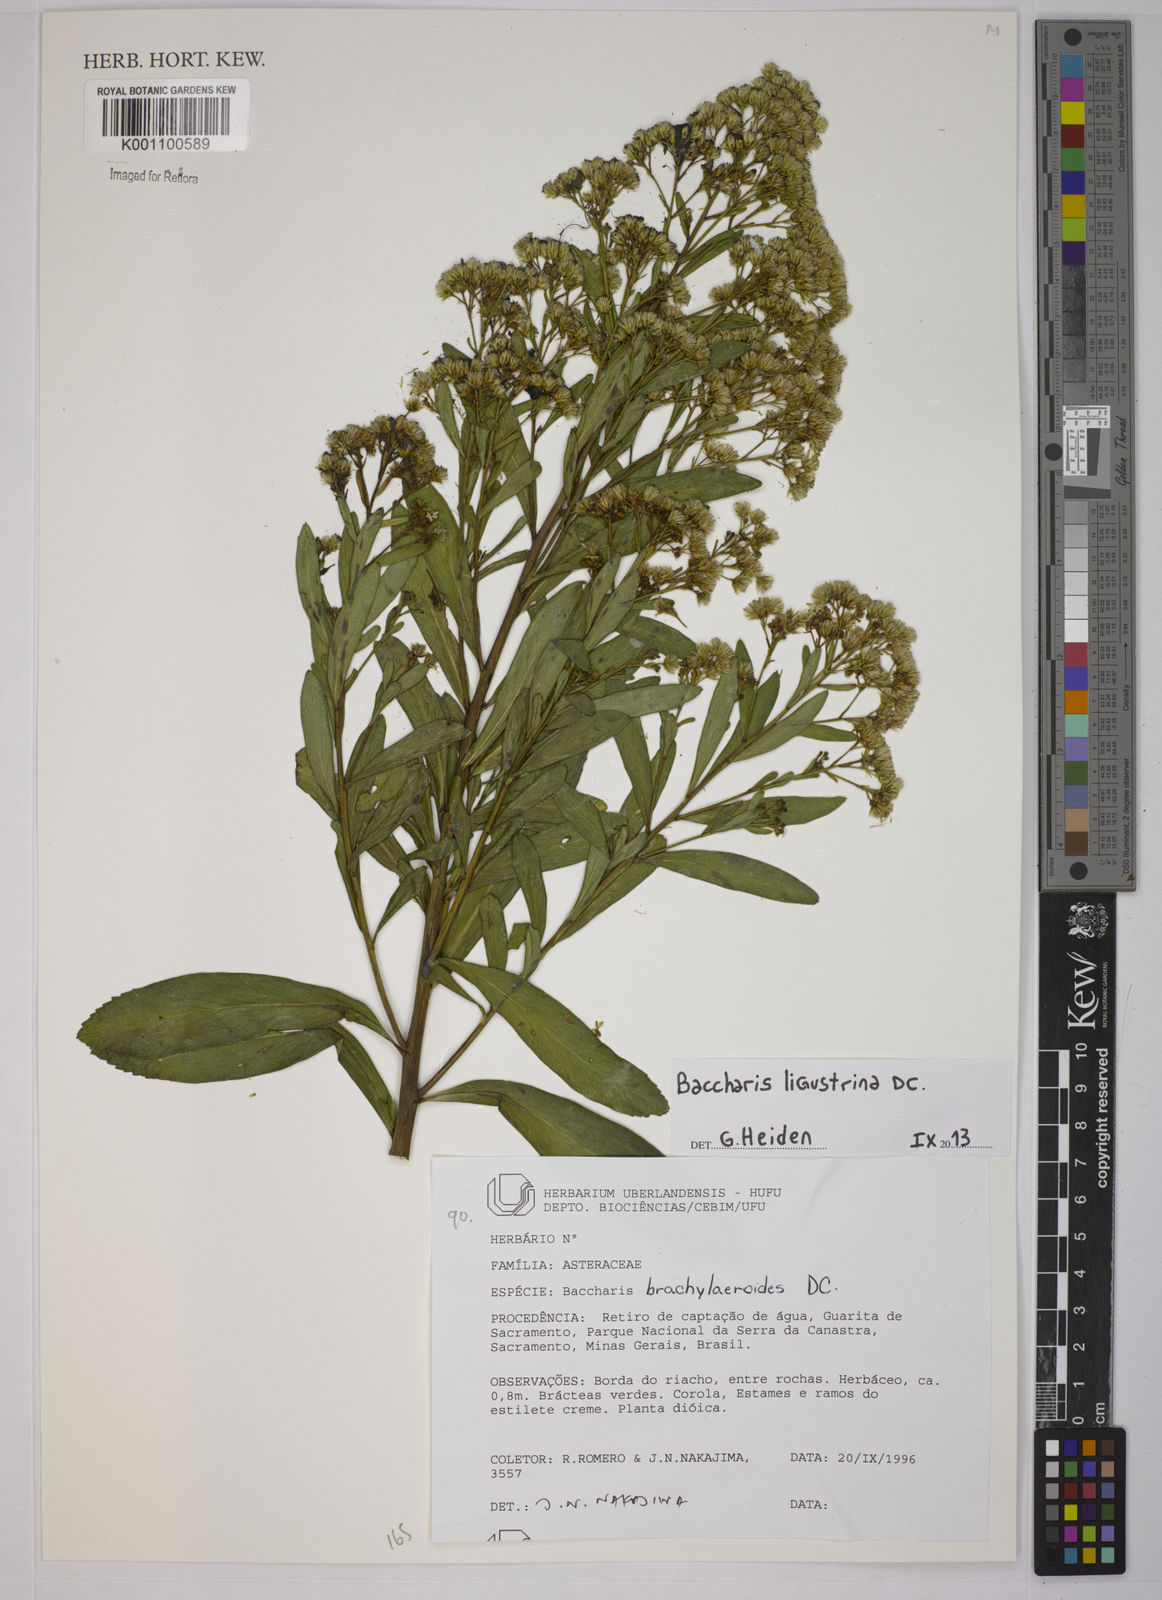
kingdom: Plantae
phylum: Tracheophyta
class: Magnoliopsida
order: Asterales
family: Asteraceae
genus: Baccharis
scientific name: Baccharis ligustrina
